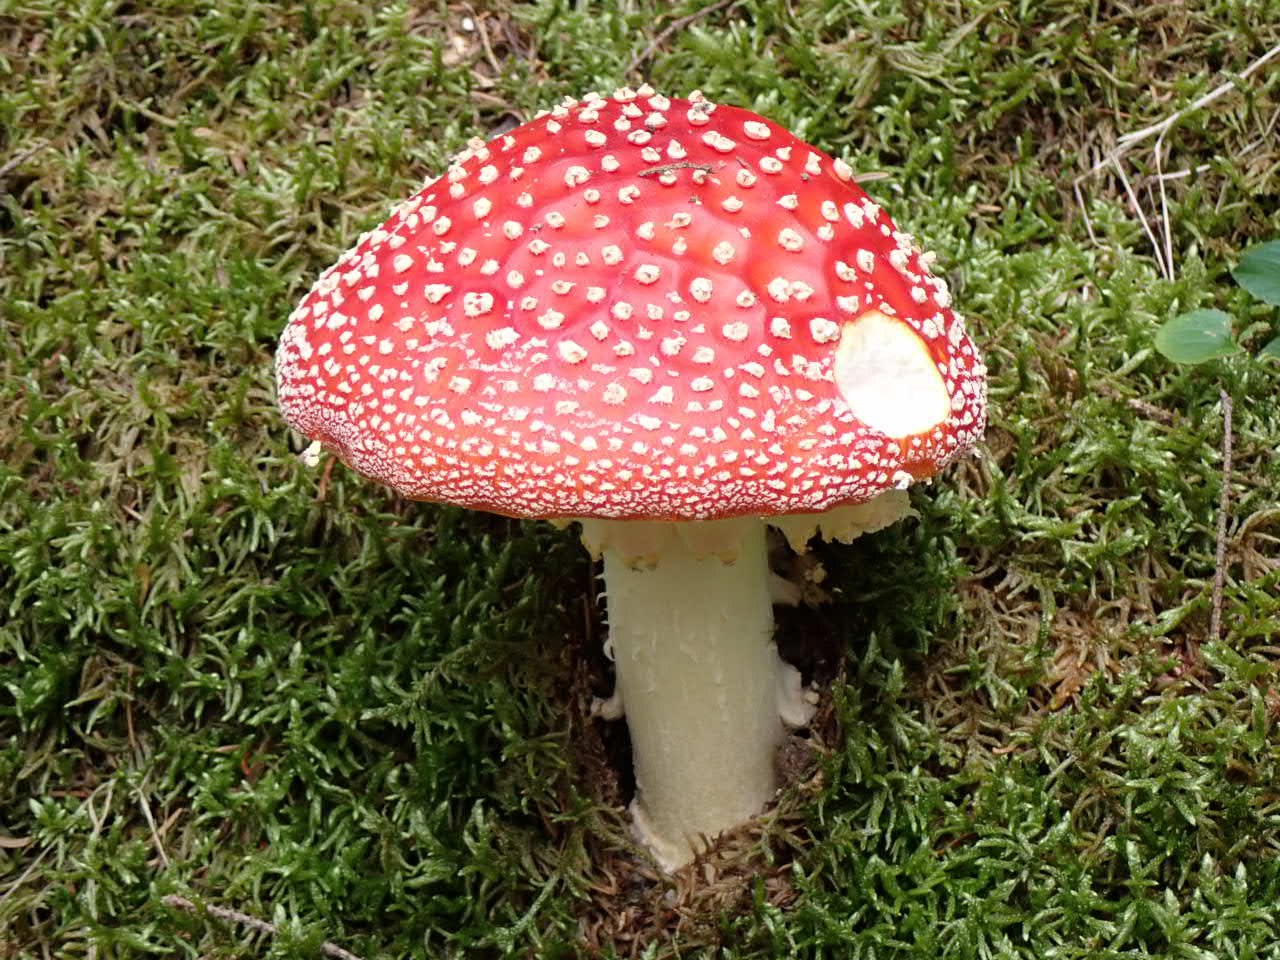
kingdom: Fungi
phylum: Basidiomycota
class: Agaricomycetes
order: Agaricales
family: Amanitaceae
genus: Amanita
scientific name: Amanita muscaria
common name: rød fluesvamp
